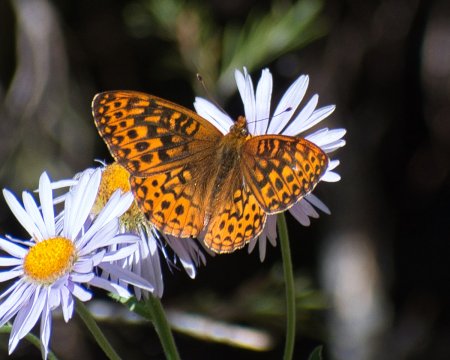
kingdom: Animalia
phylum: Arthropoda
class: Insecta
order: Lepidoptera
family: Nymphalidae
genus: Speyeria
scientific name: Speyeria hydaspe
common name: Hydaspe Fritillary
